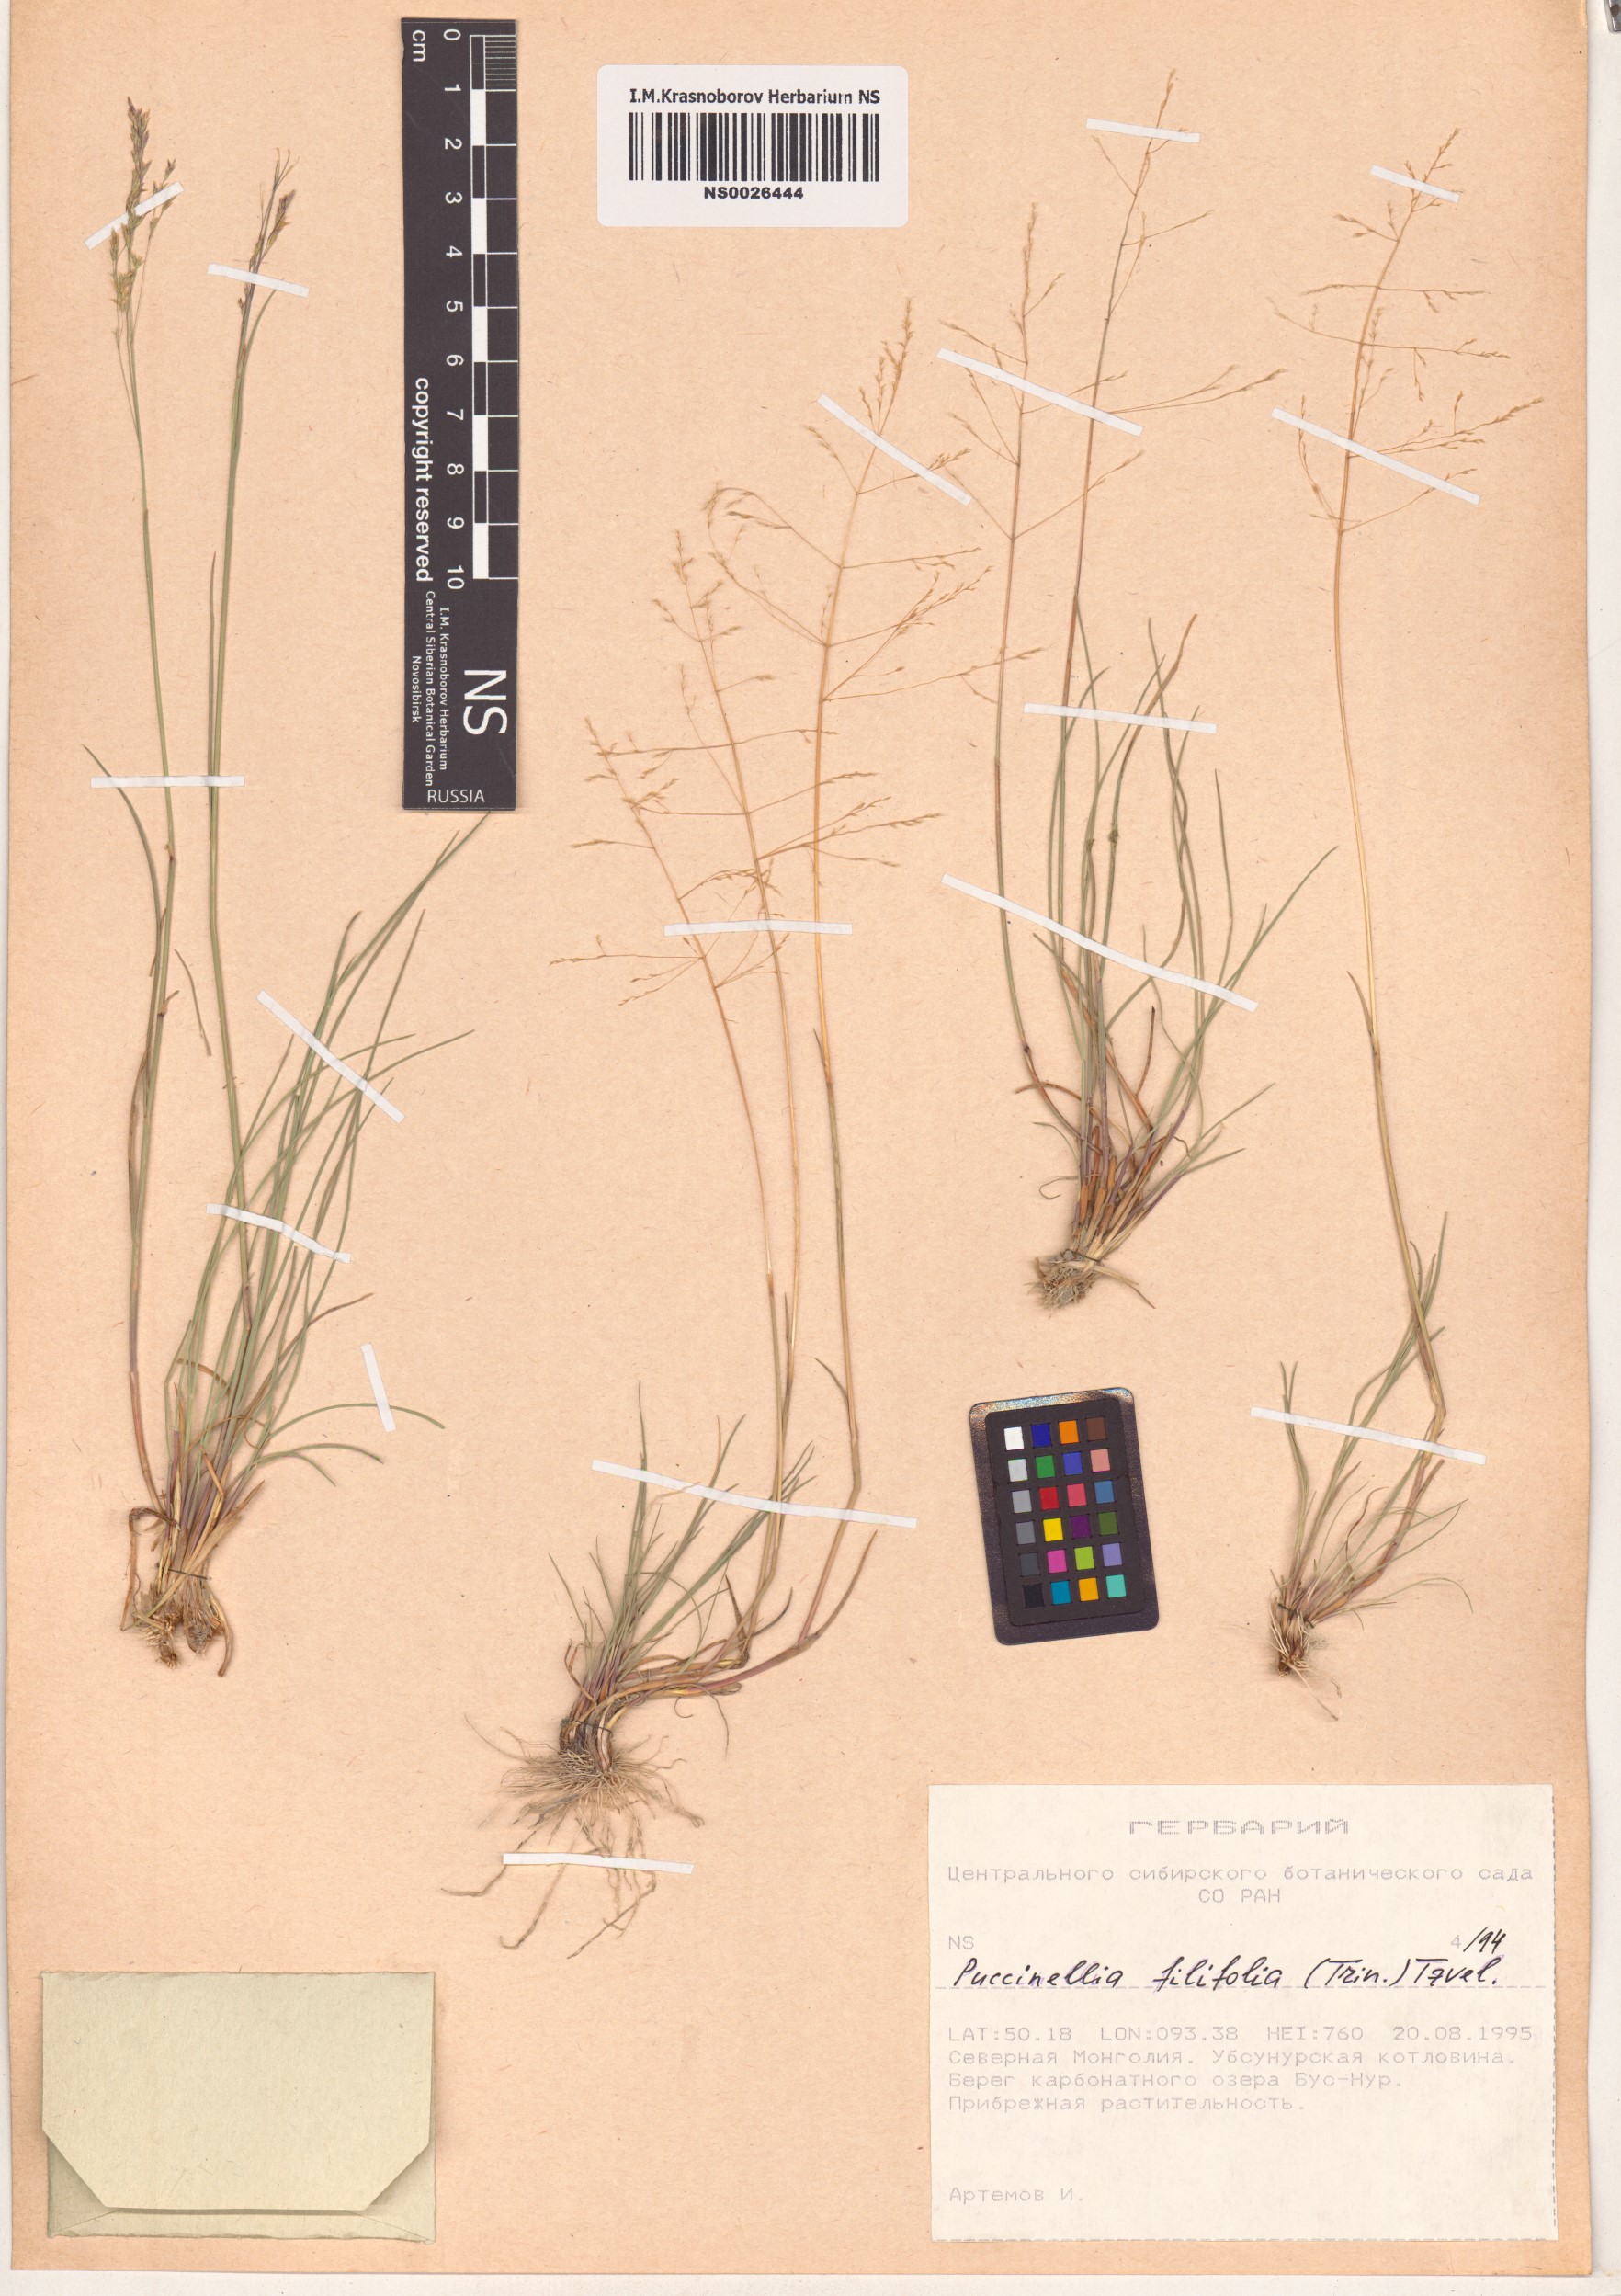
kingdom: Plantae
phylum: Tracheophyta
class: Liliopsida
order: Poales
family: Poaceae
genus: Puccinellia
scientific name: Puccinellia filifolia
